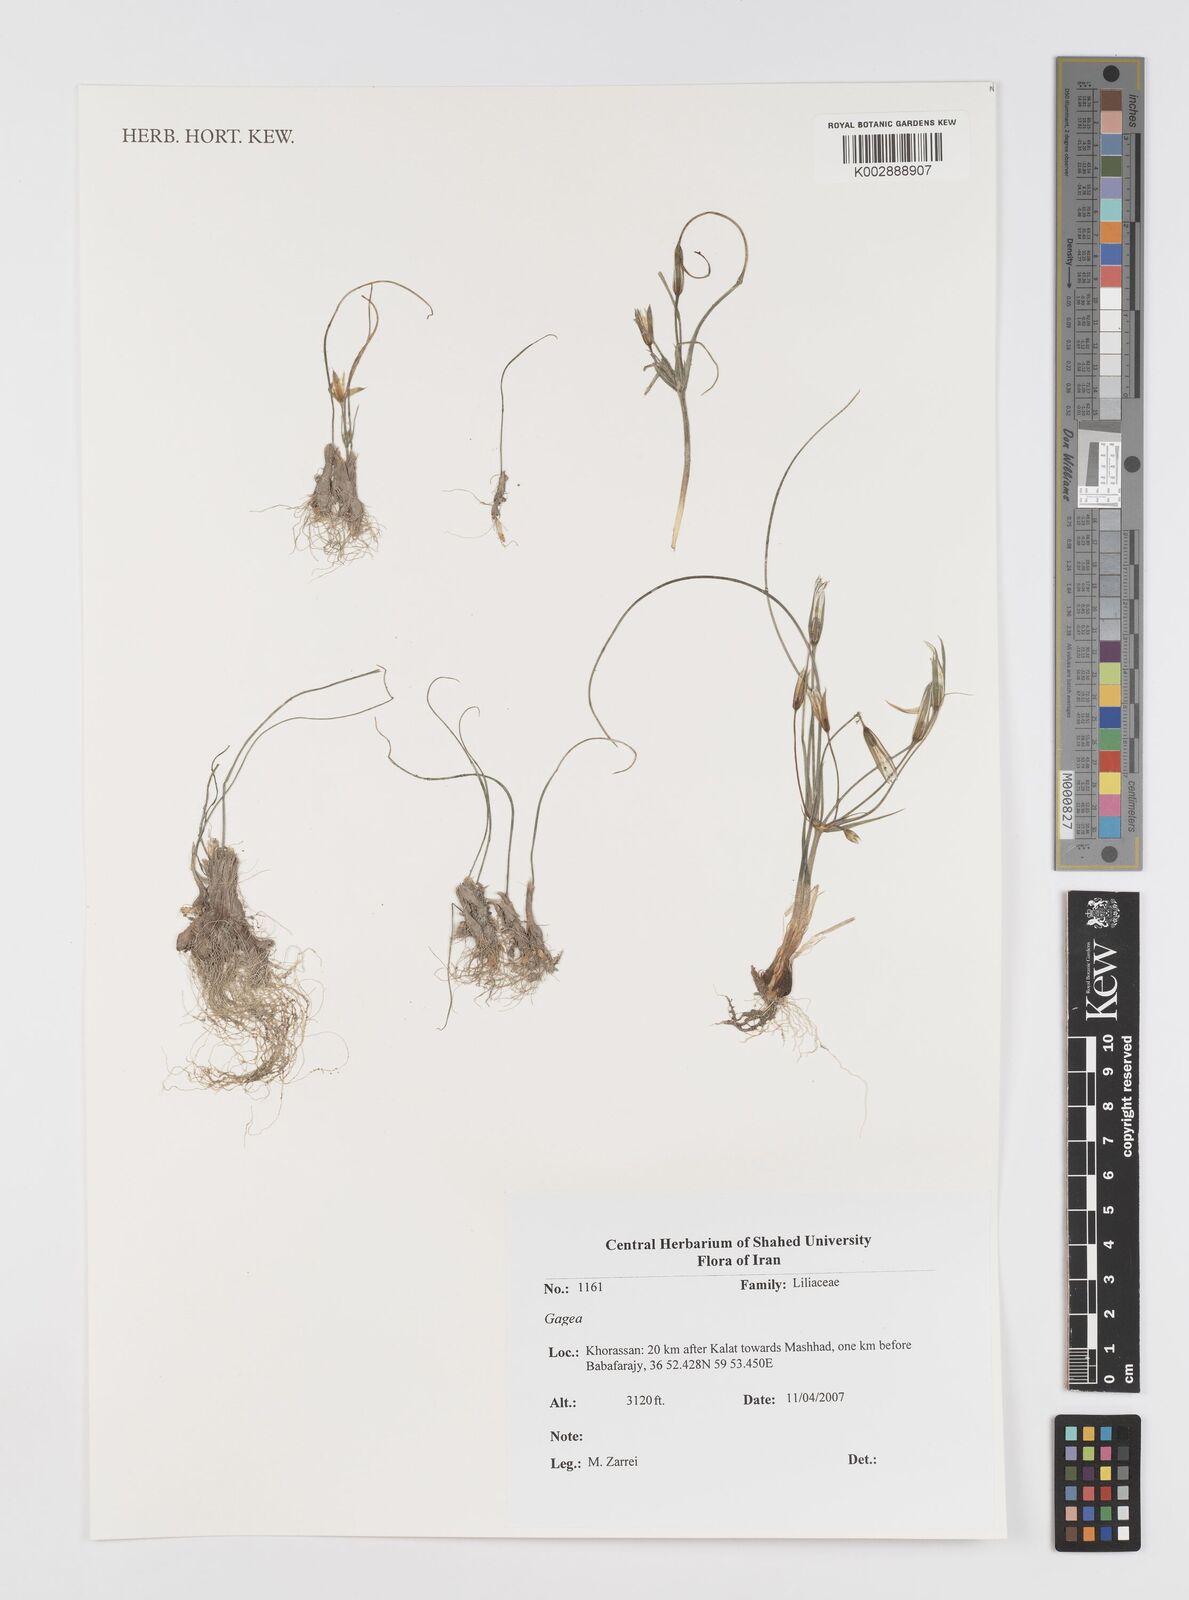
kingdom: Plantae
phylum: Tracheophyta
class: Liliopsida
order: Liliales
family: Liliaceae
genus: Gagea
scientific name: Gagea
